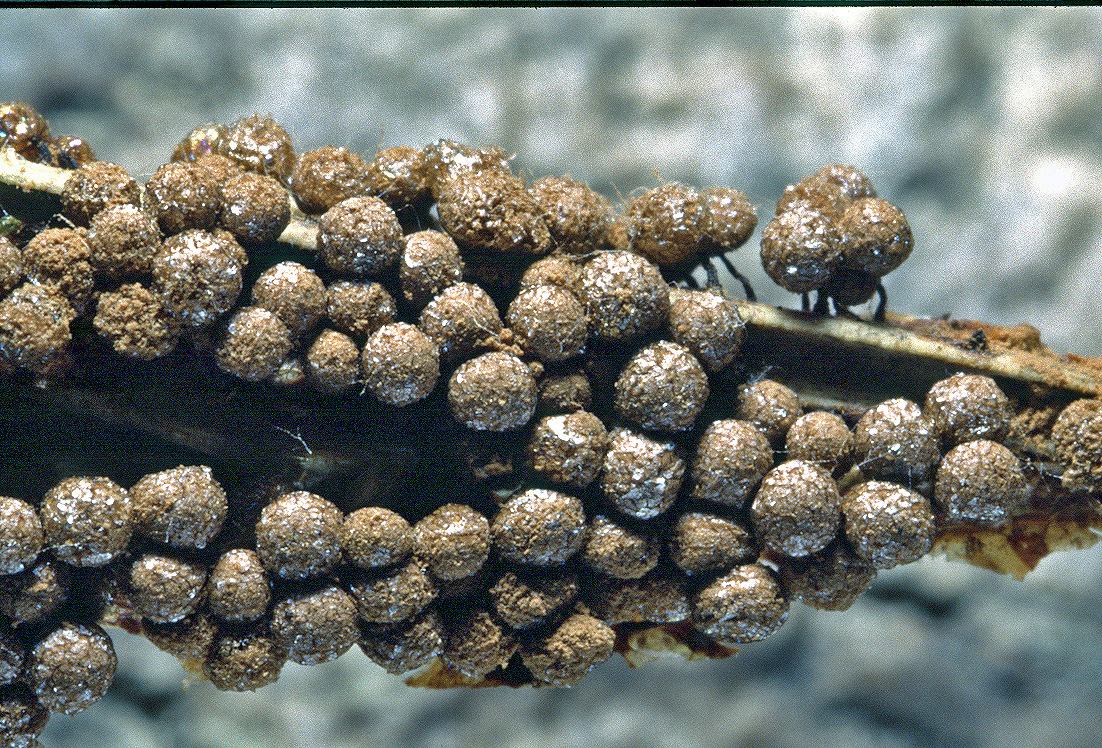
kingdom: Protozoa
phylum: Mycetozoa
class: Myxomycetes
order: Cribrariales
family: Cribrariaceae
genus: Cribraria
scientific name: Cribraria argillacea
